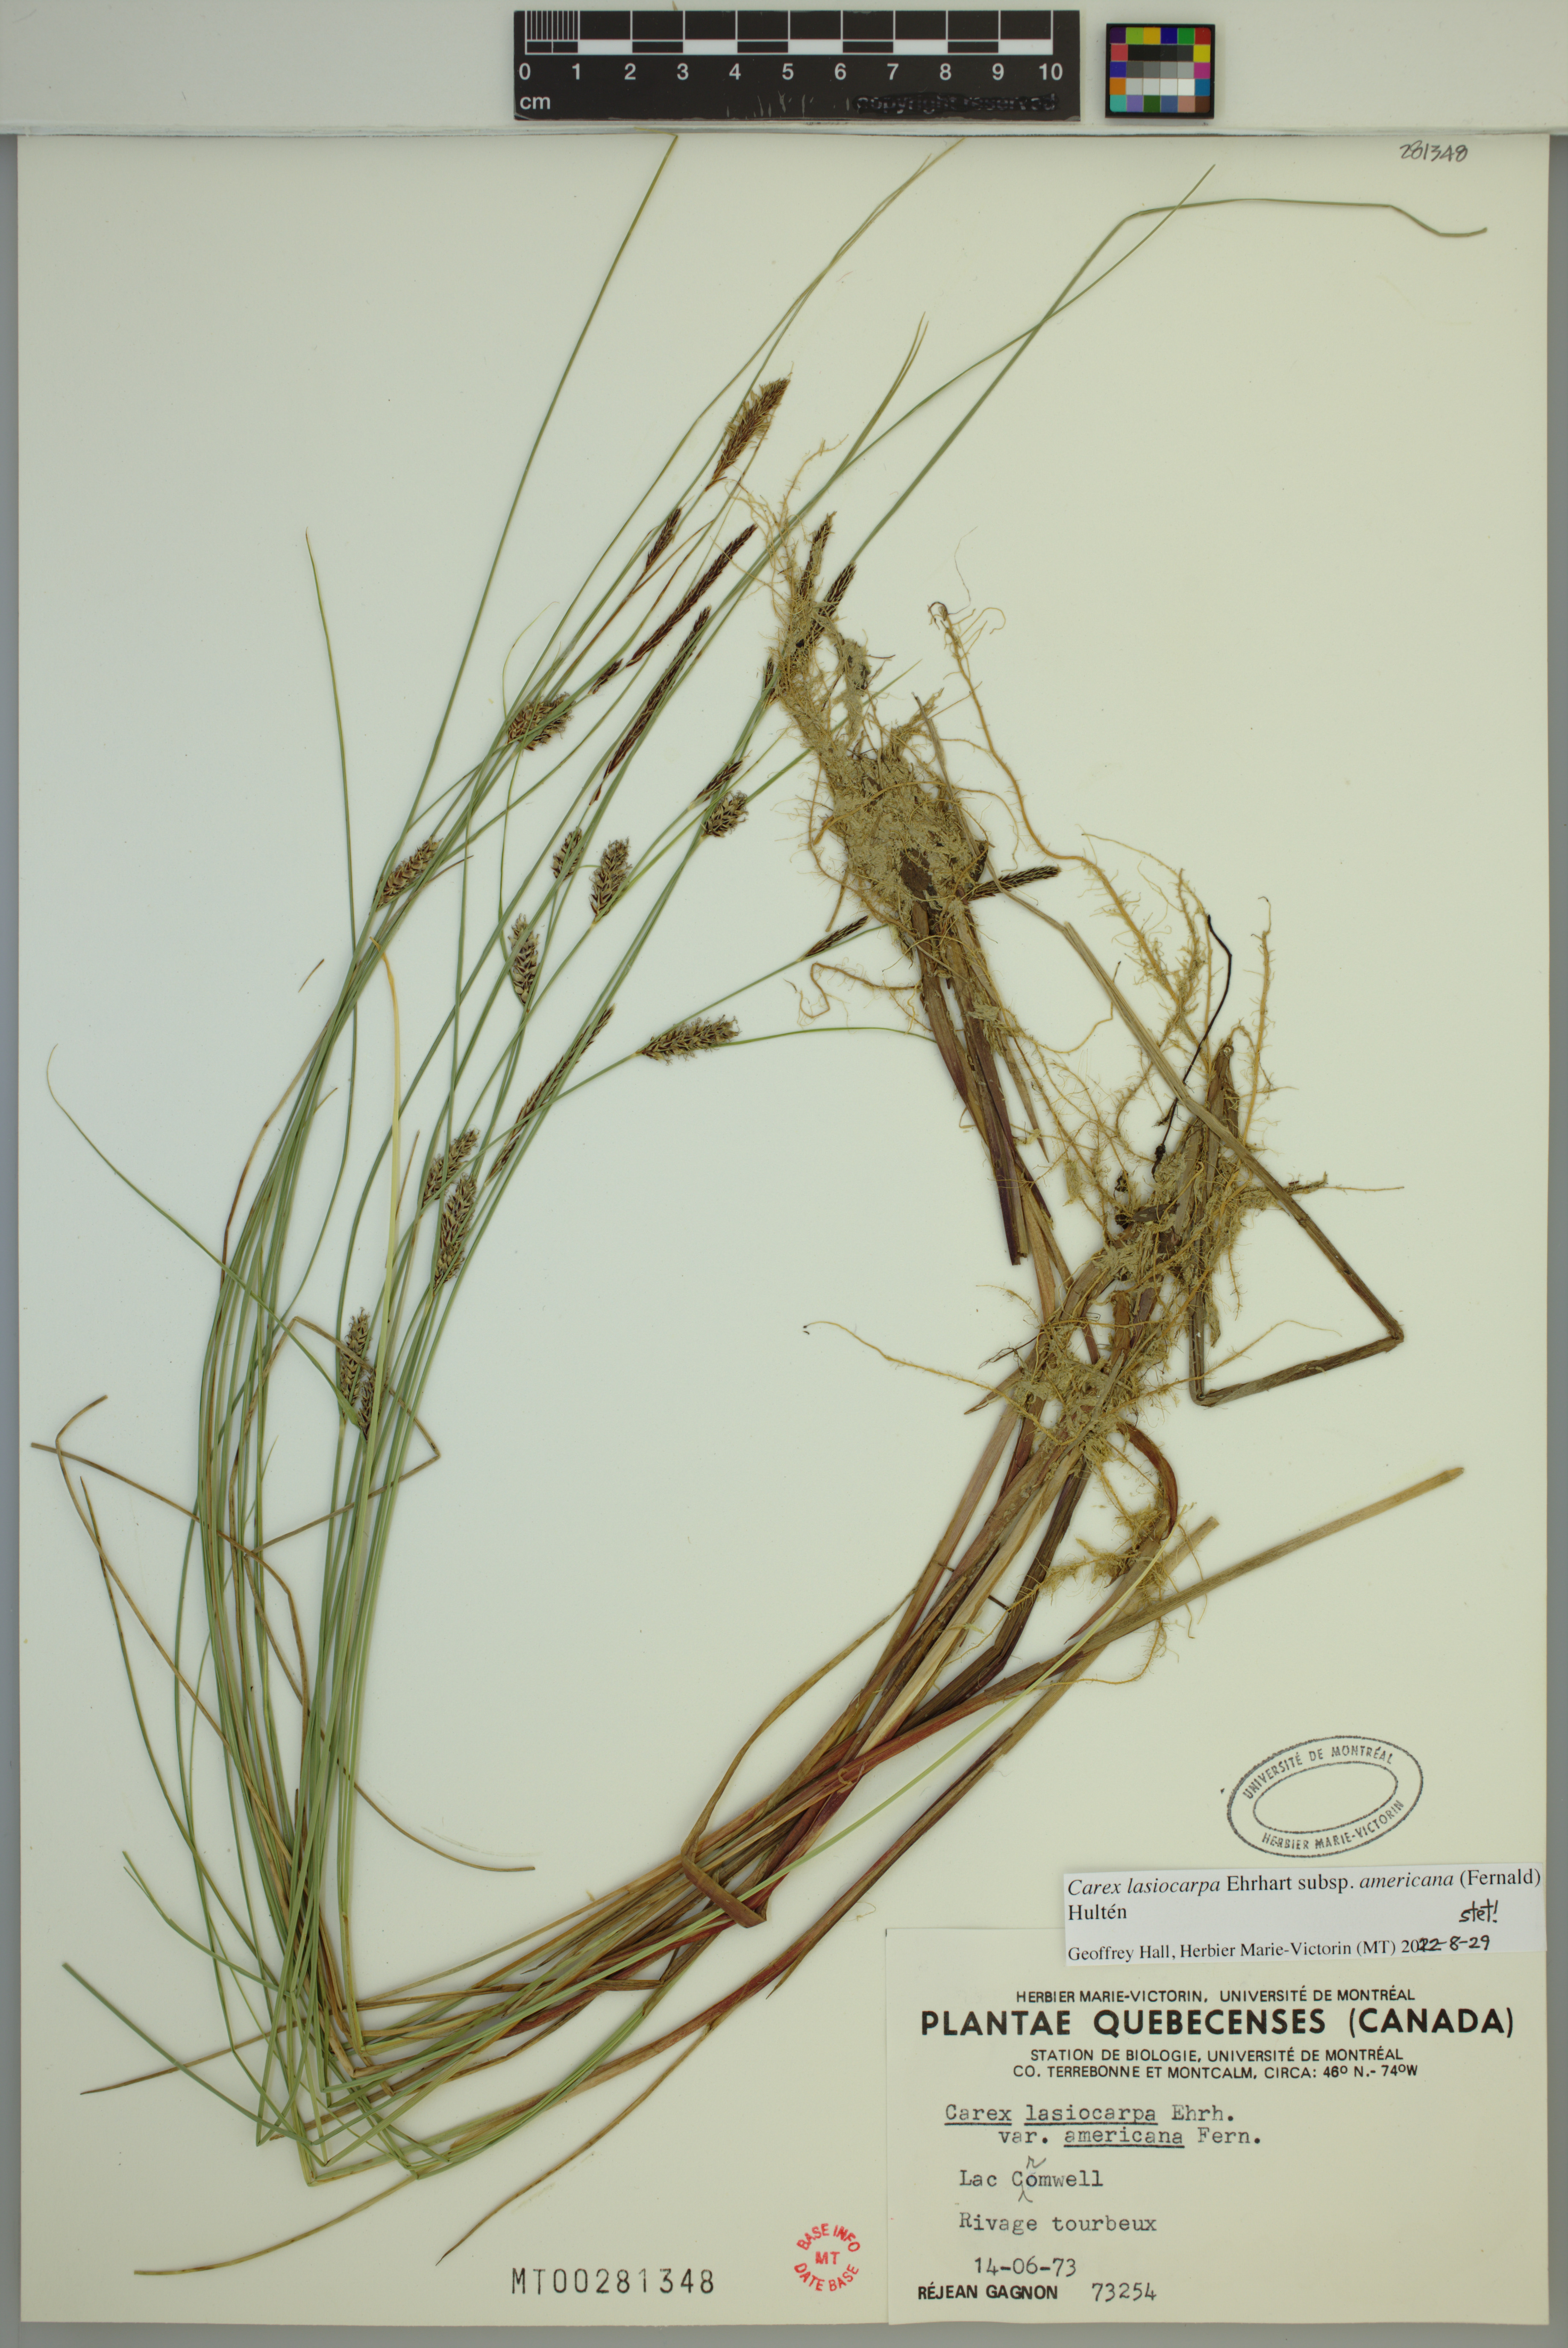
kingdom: Plantae
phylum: Tracheophyta
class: Liliopsida
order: Poales
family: Cyperaceae
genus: Carex
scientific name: Carex lasiocarpa
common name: Slender sedge
